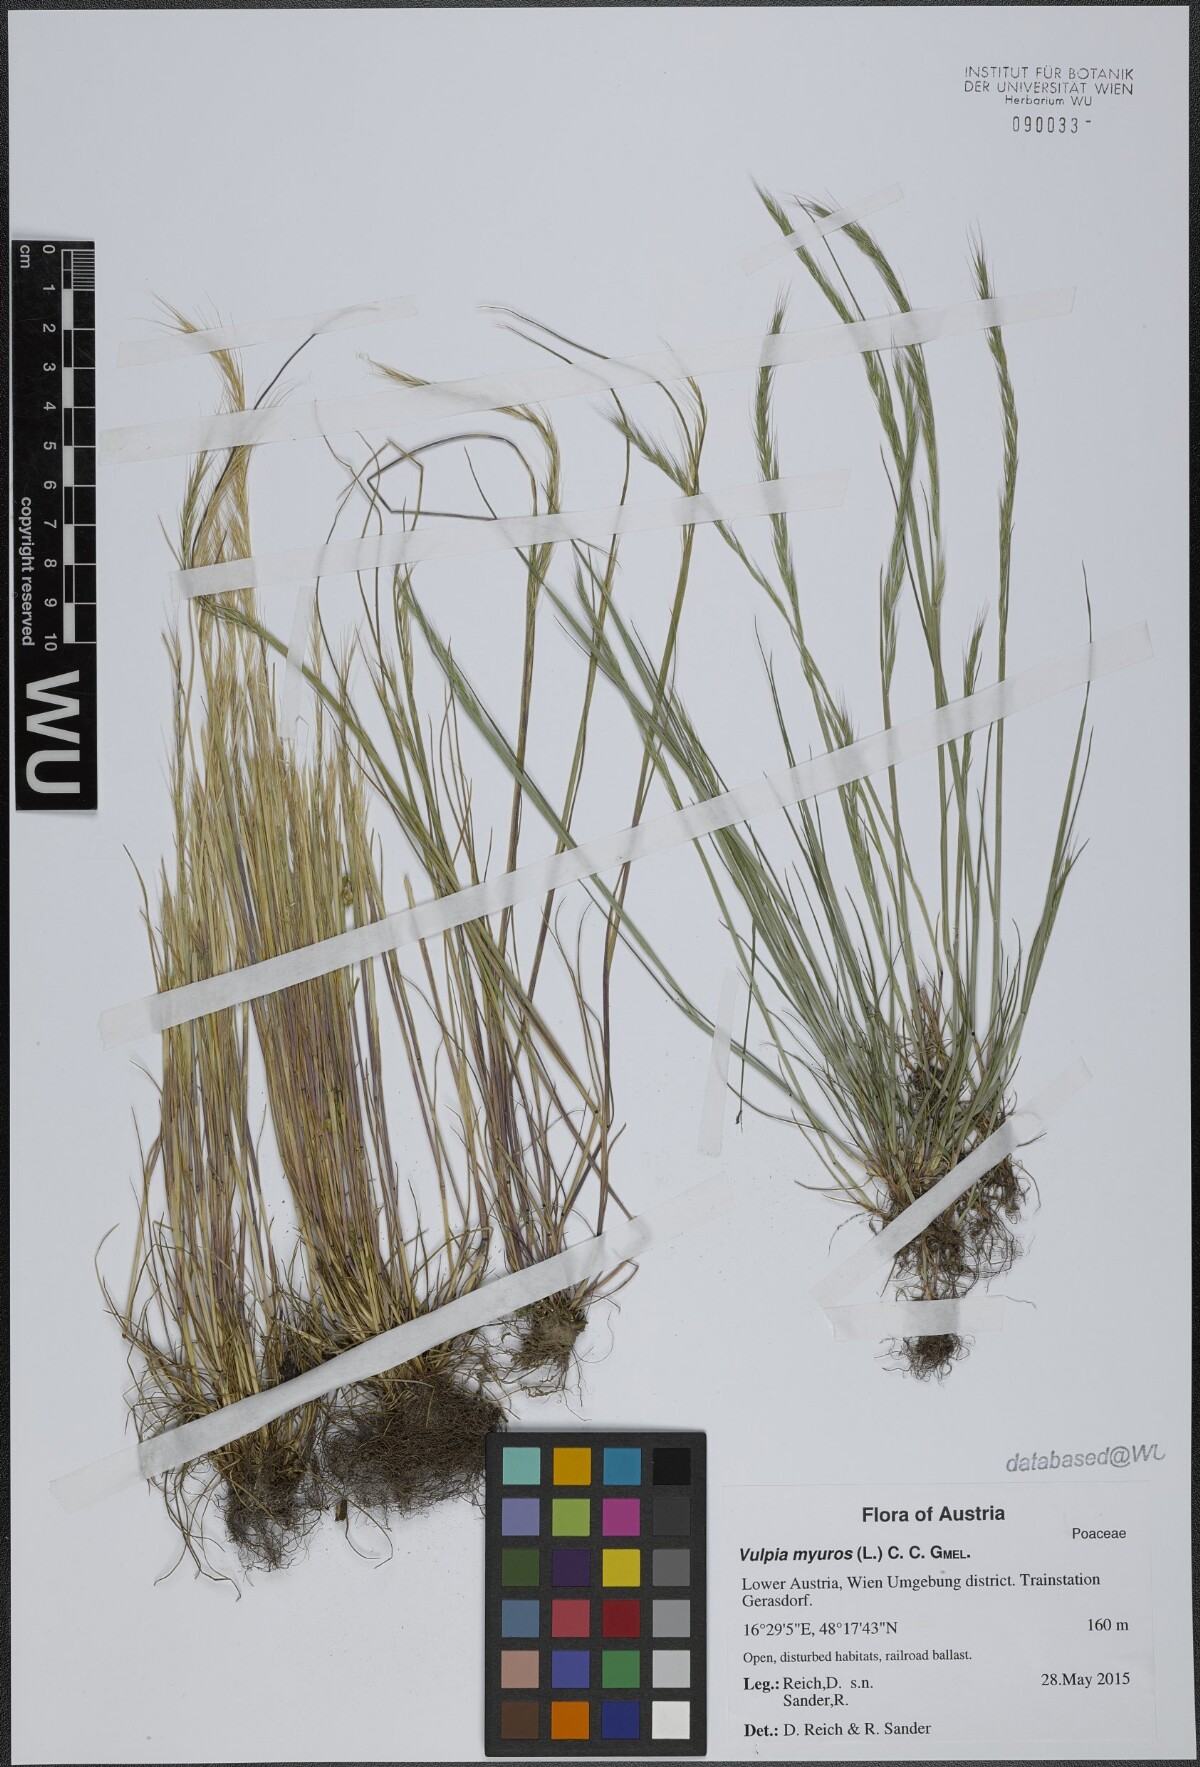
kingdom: Plantae
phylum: Tracheophyta
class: Liliopsida
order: Poales
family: Poaceae
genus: Festuca
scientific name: Festuca myuros
